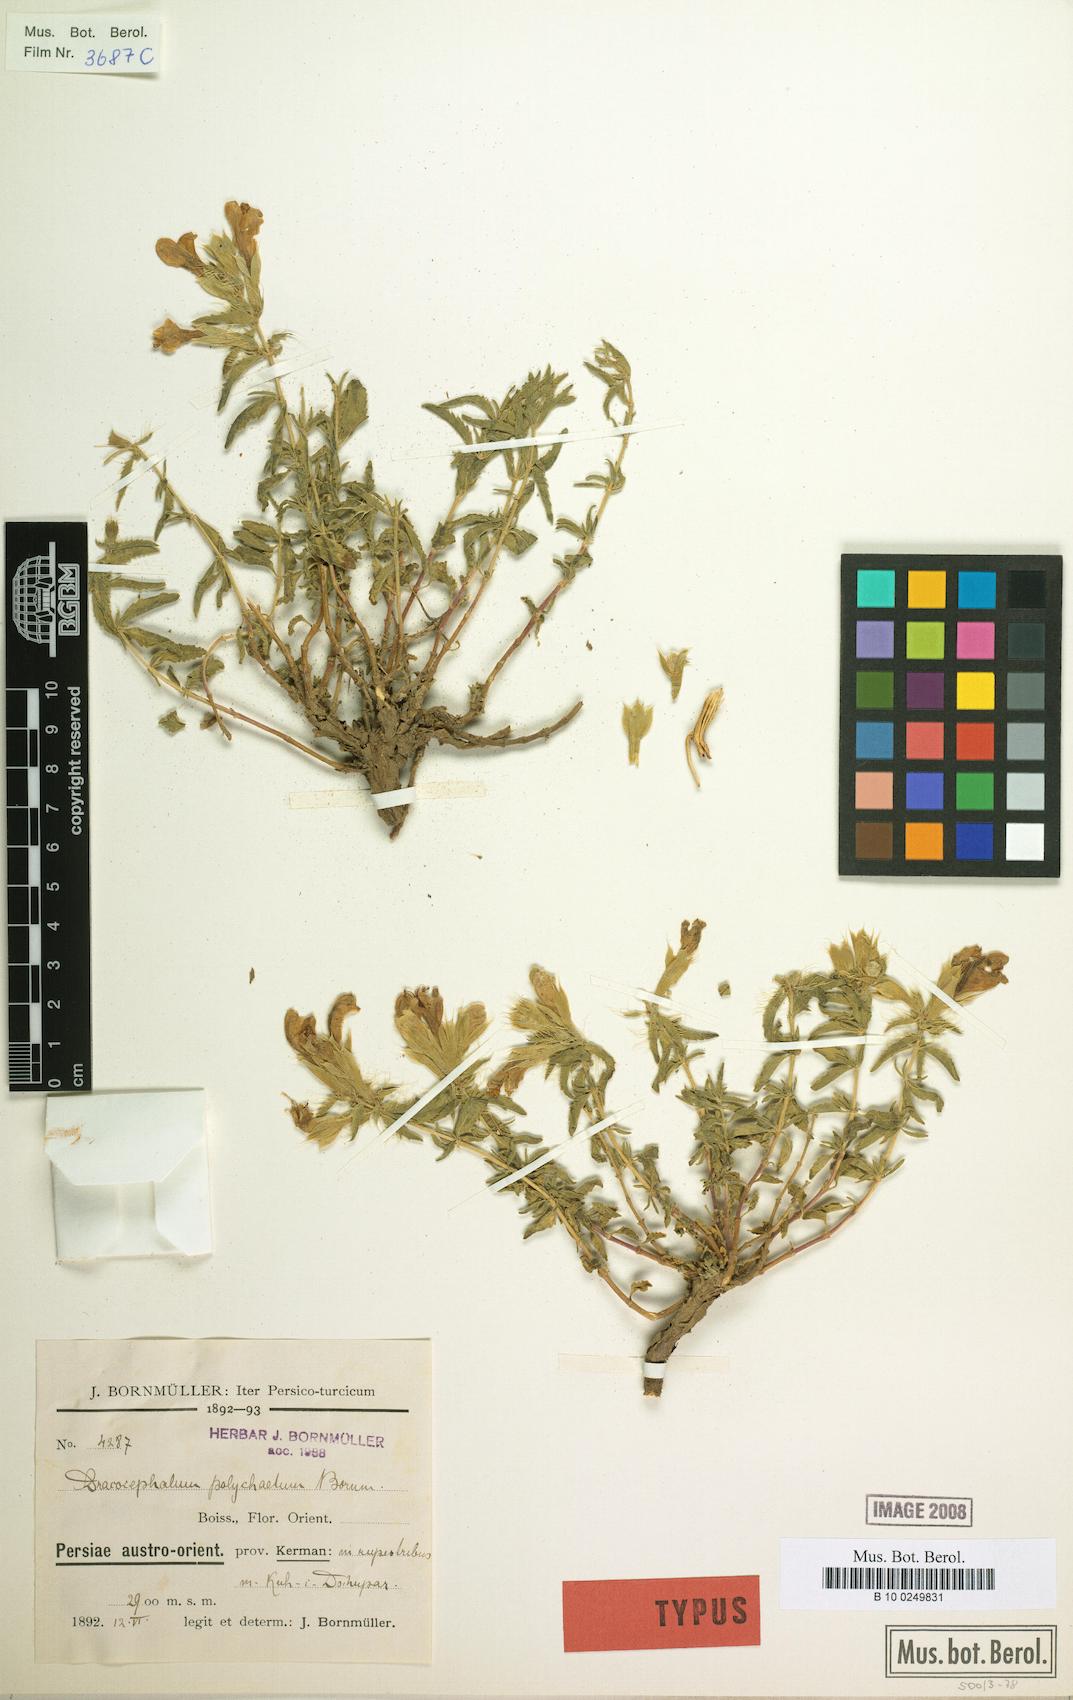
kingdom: Plantae
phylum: Tracheophyta
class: Magnoliopsida
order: Lamiales
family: Lamiaceae
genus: Dracocephalum
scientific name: Dracocephalum polychaetum
